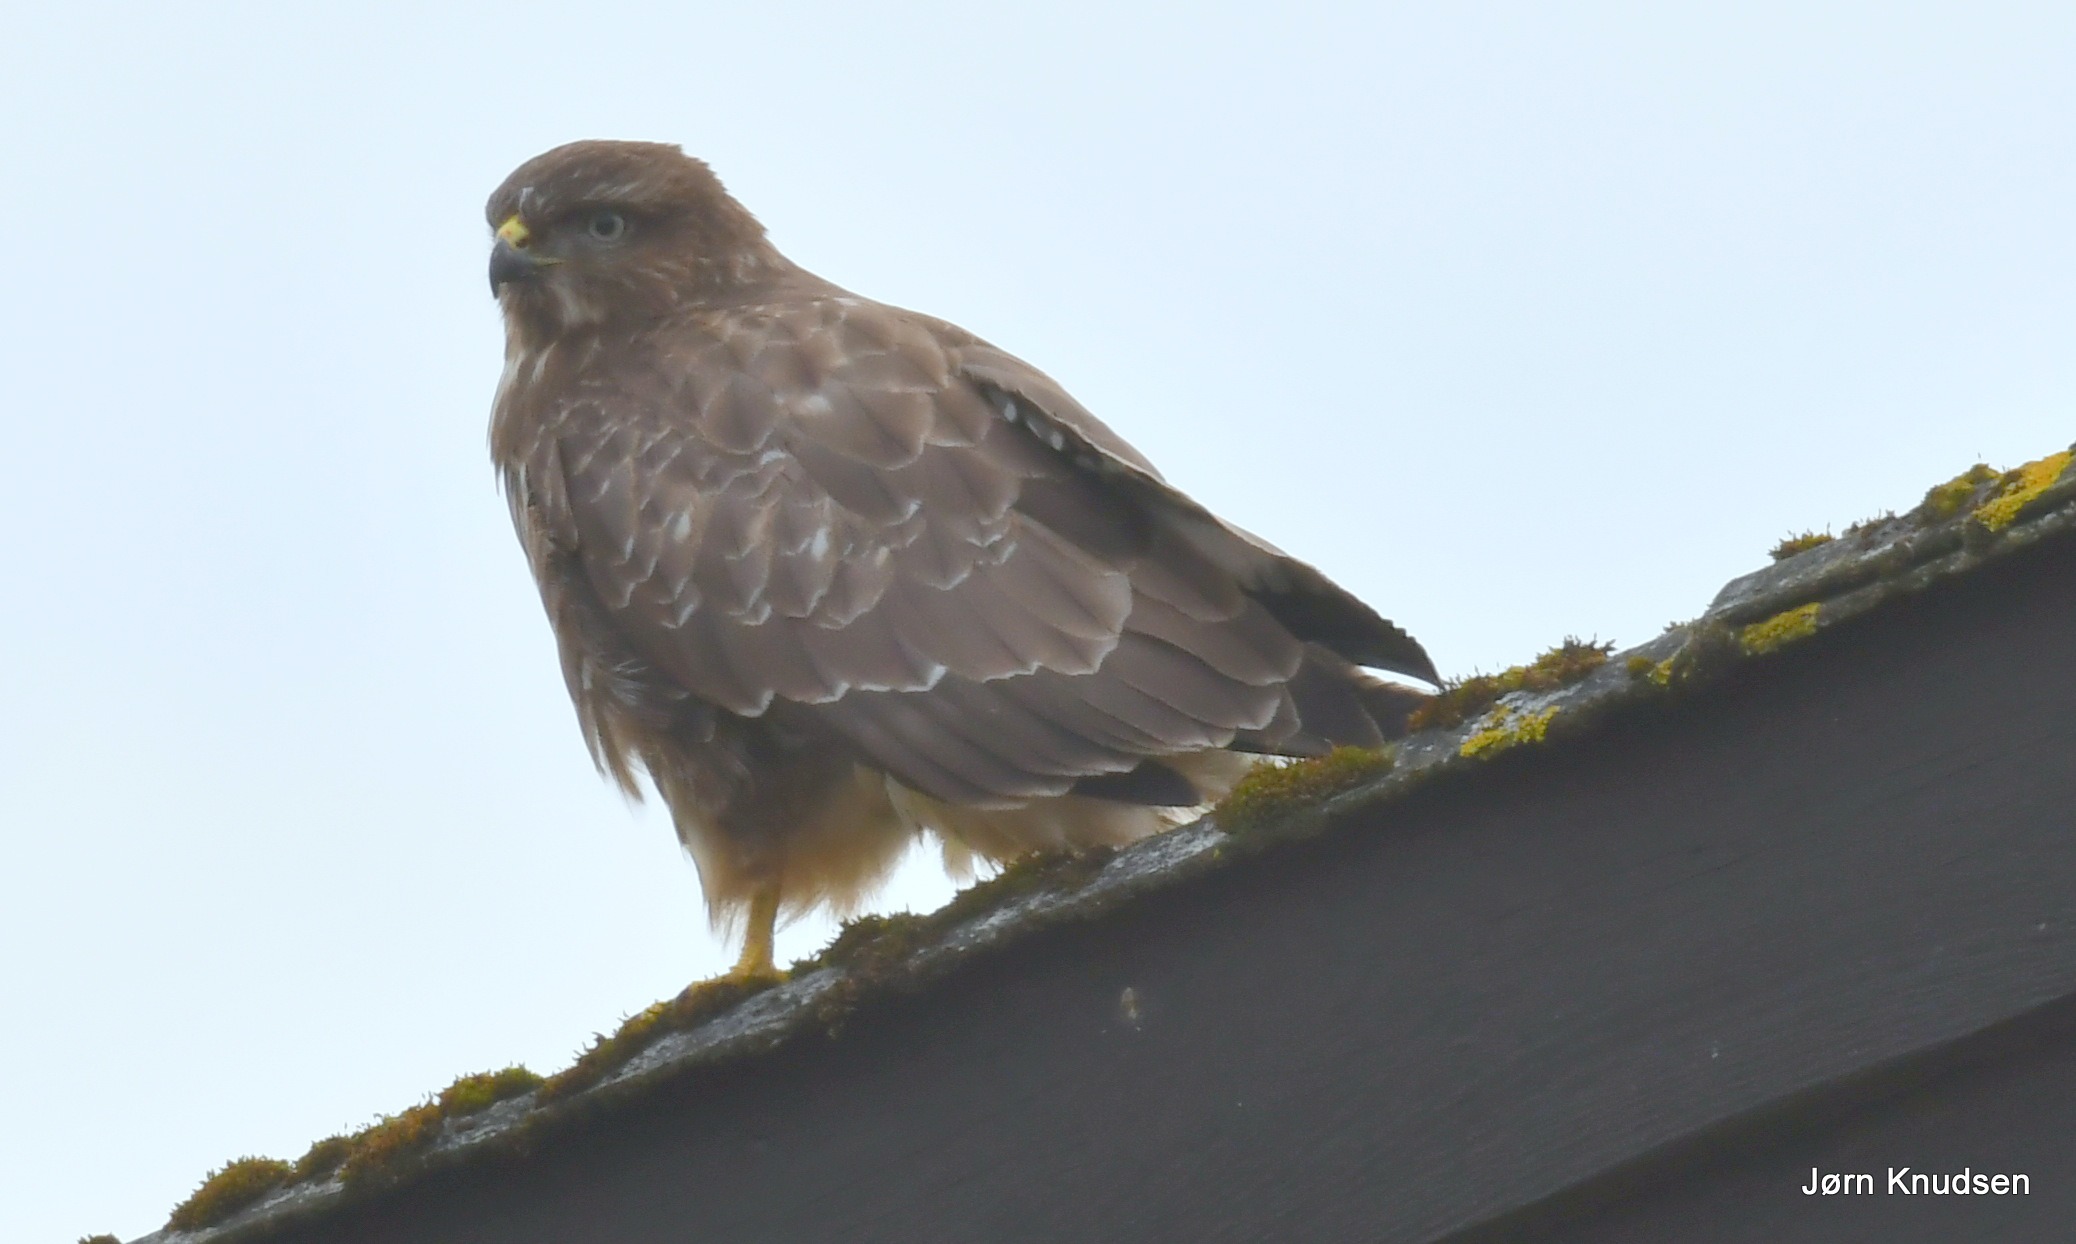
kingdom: Animalia
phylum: Chordata
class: Aves
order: Accipitriformes
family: Accipitridae
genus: Buteo
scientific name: Buteo buteo
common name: Musvåge
